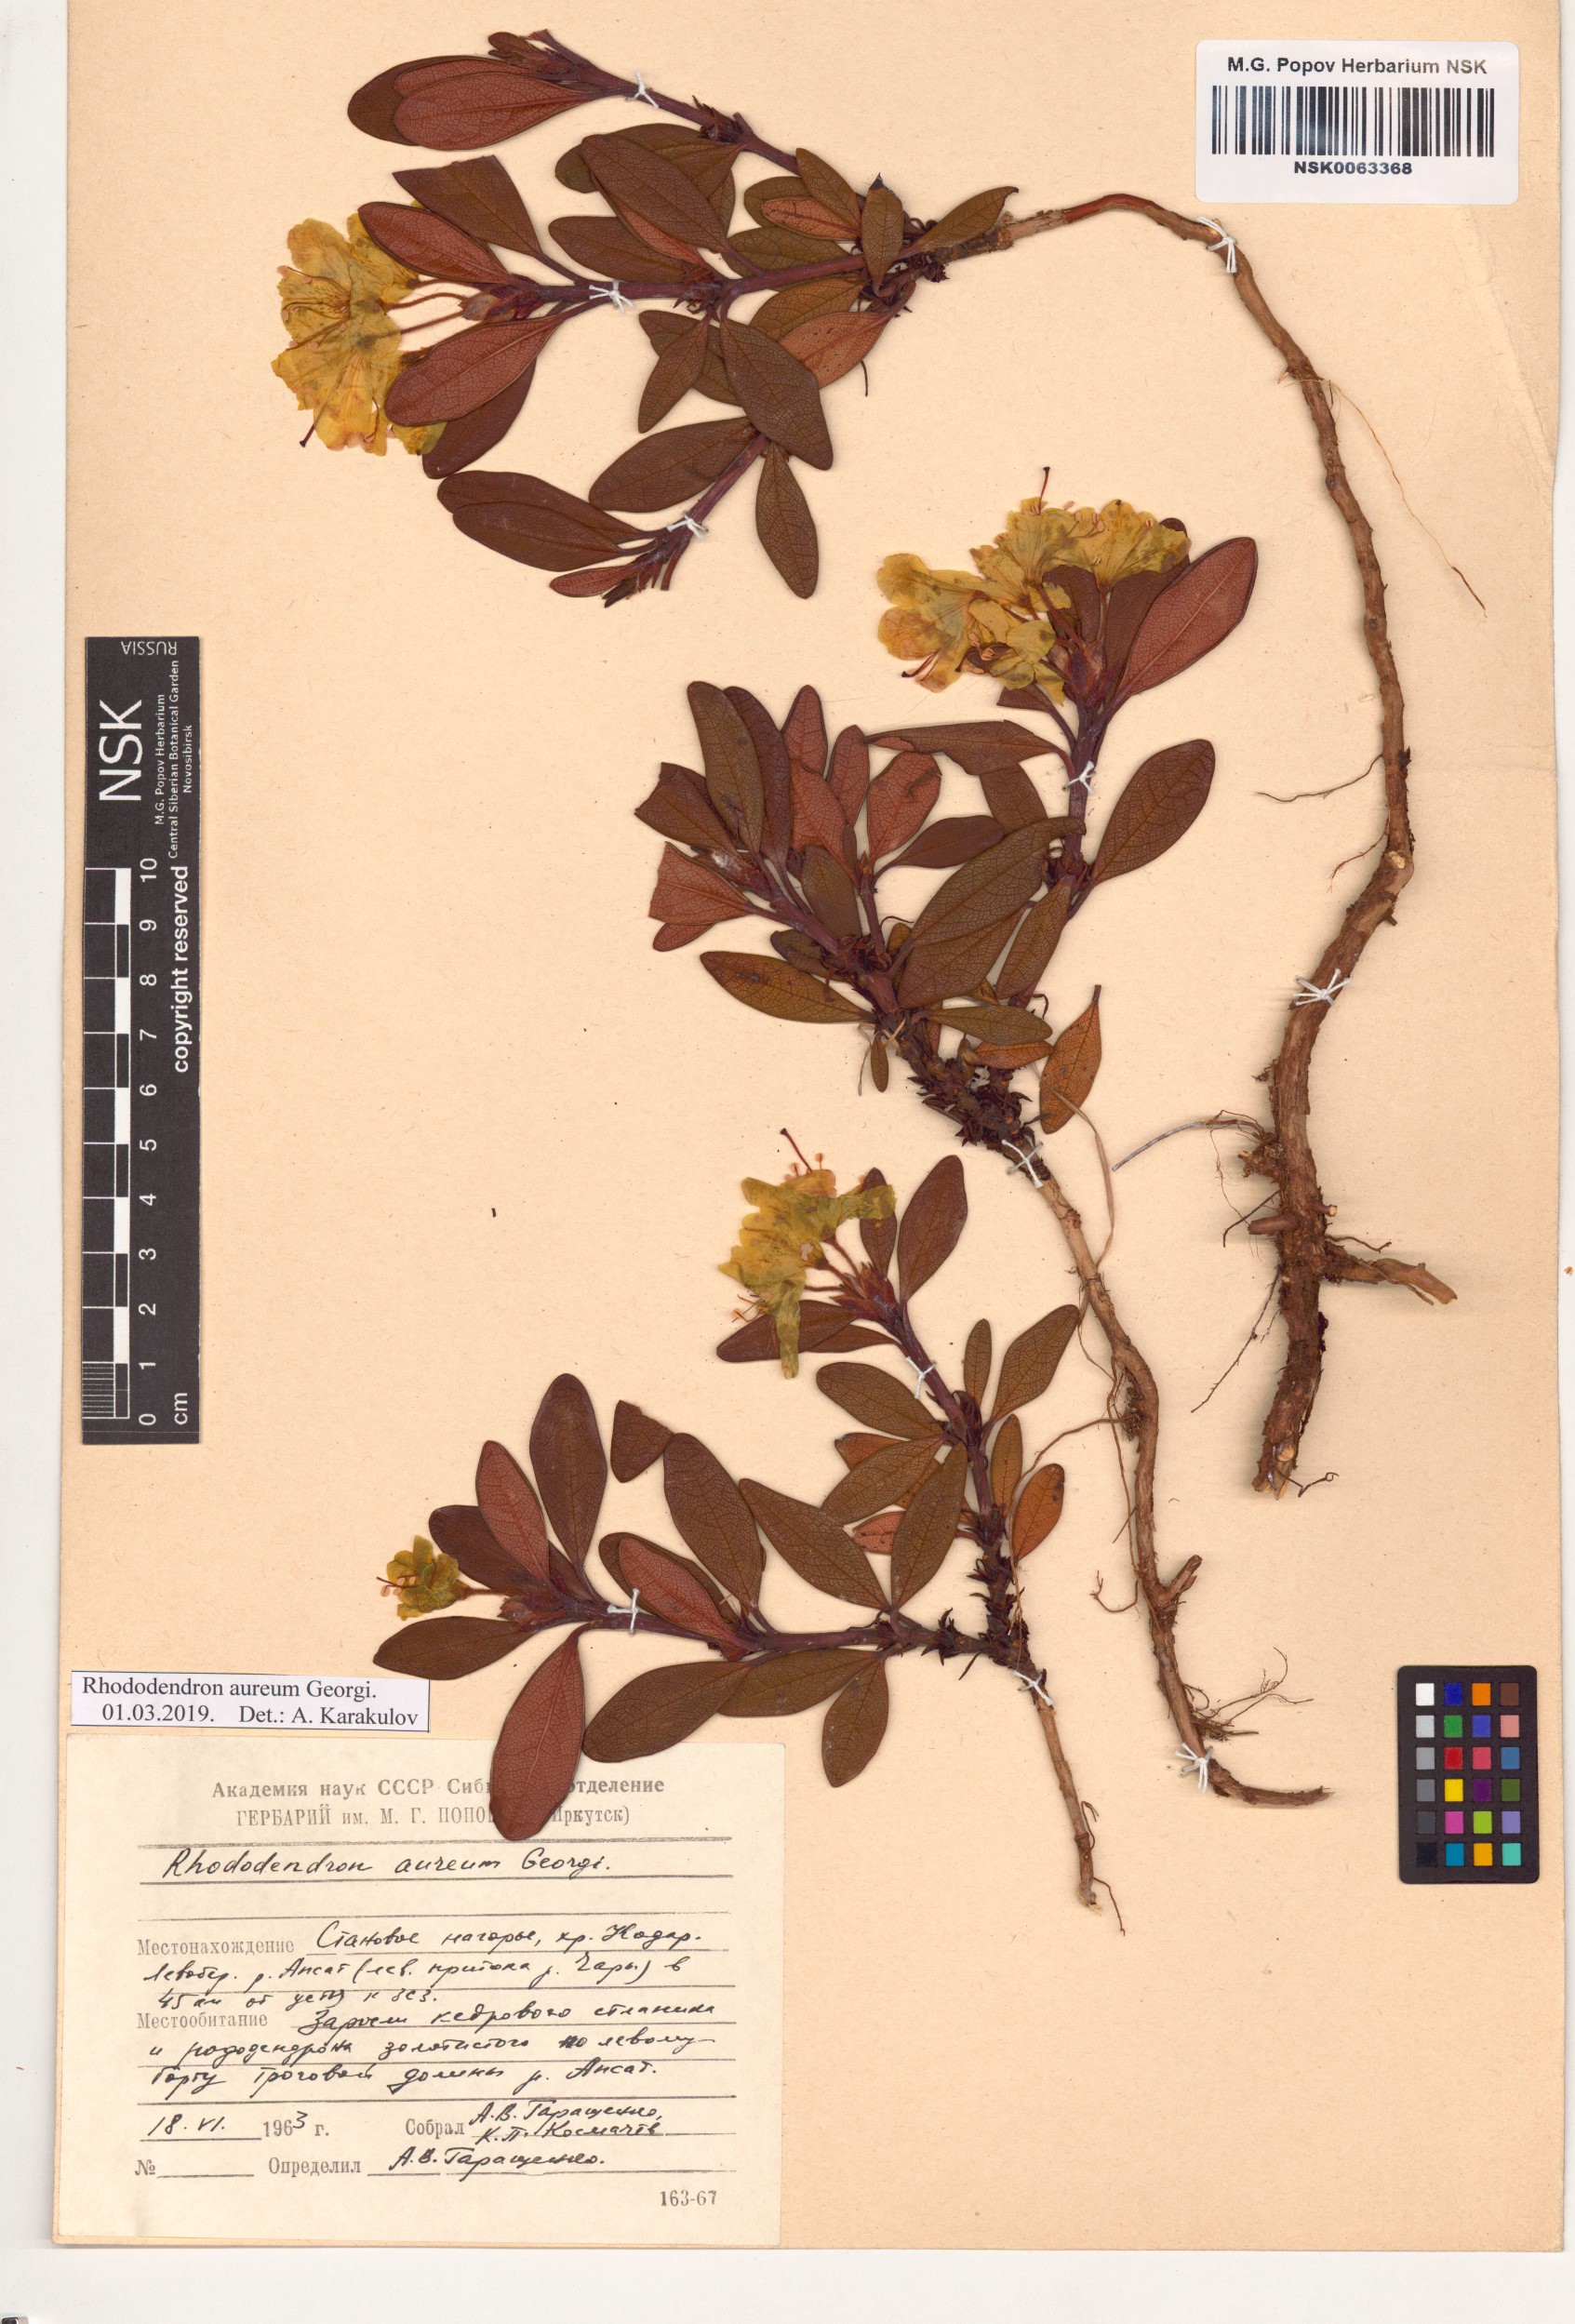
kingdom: Plantae
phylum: Tracheophyta
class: Magnoliopsida
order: Ericales
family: Ericaceae
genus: Rhododendron
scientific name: Rhododendron aureum
